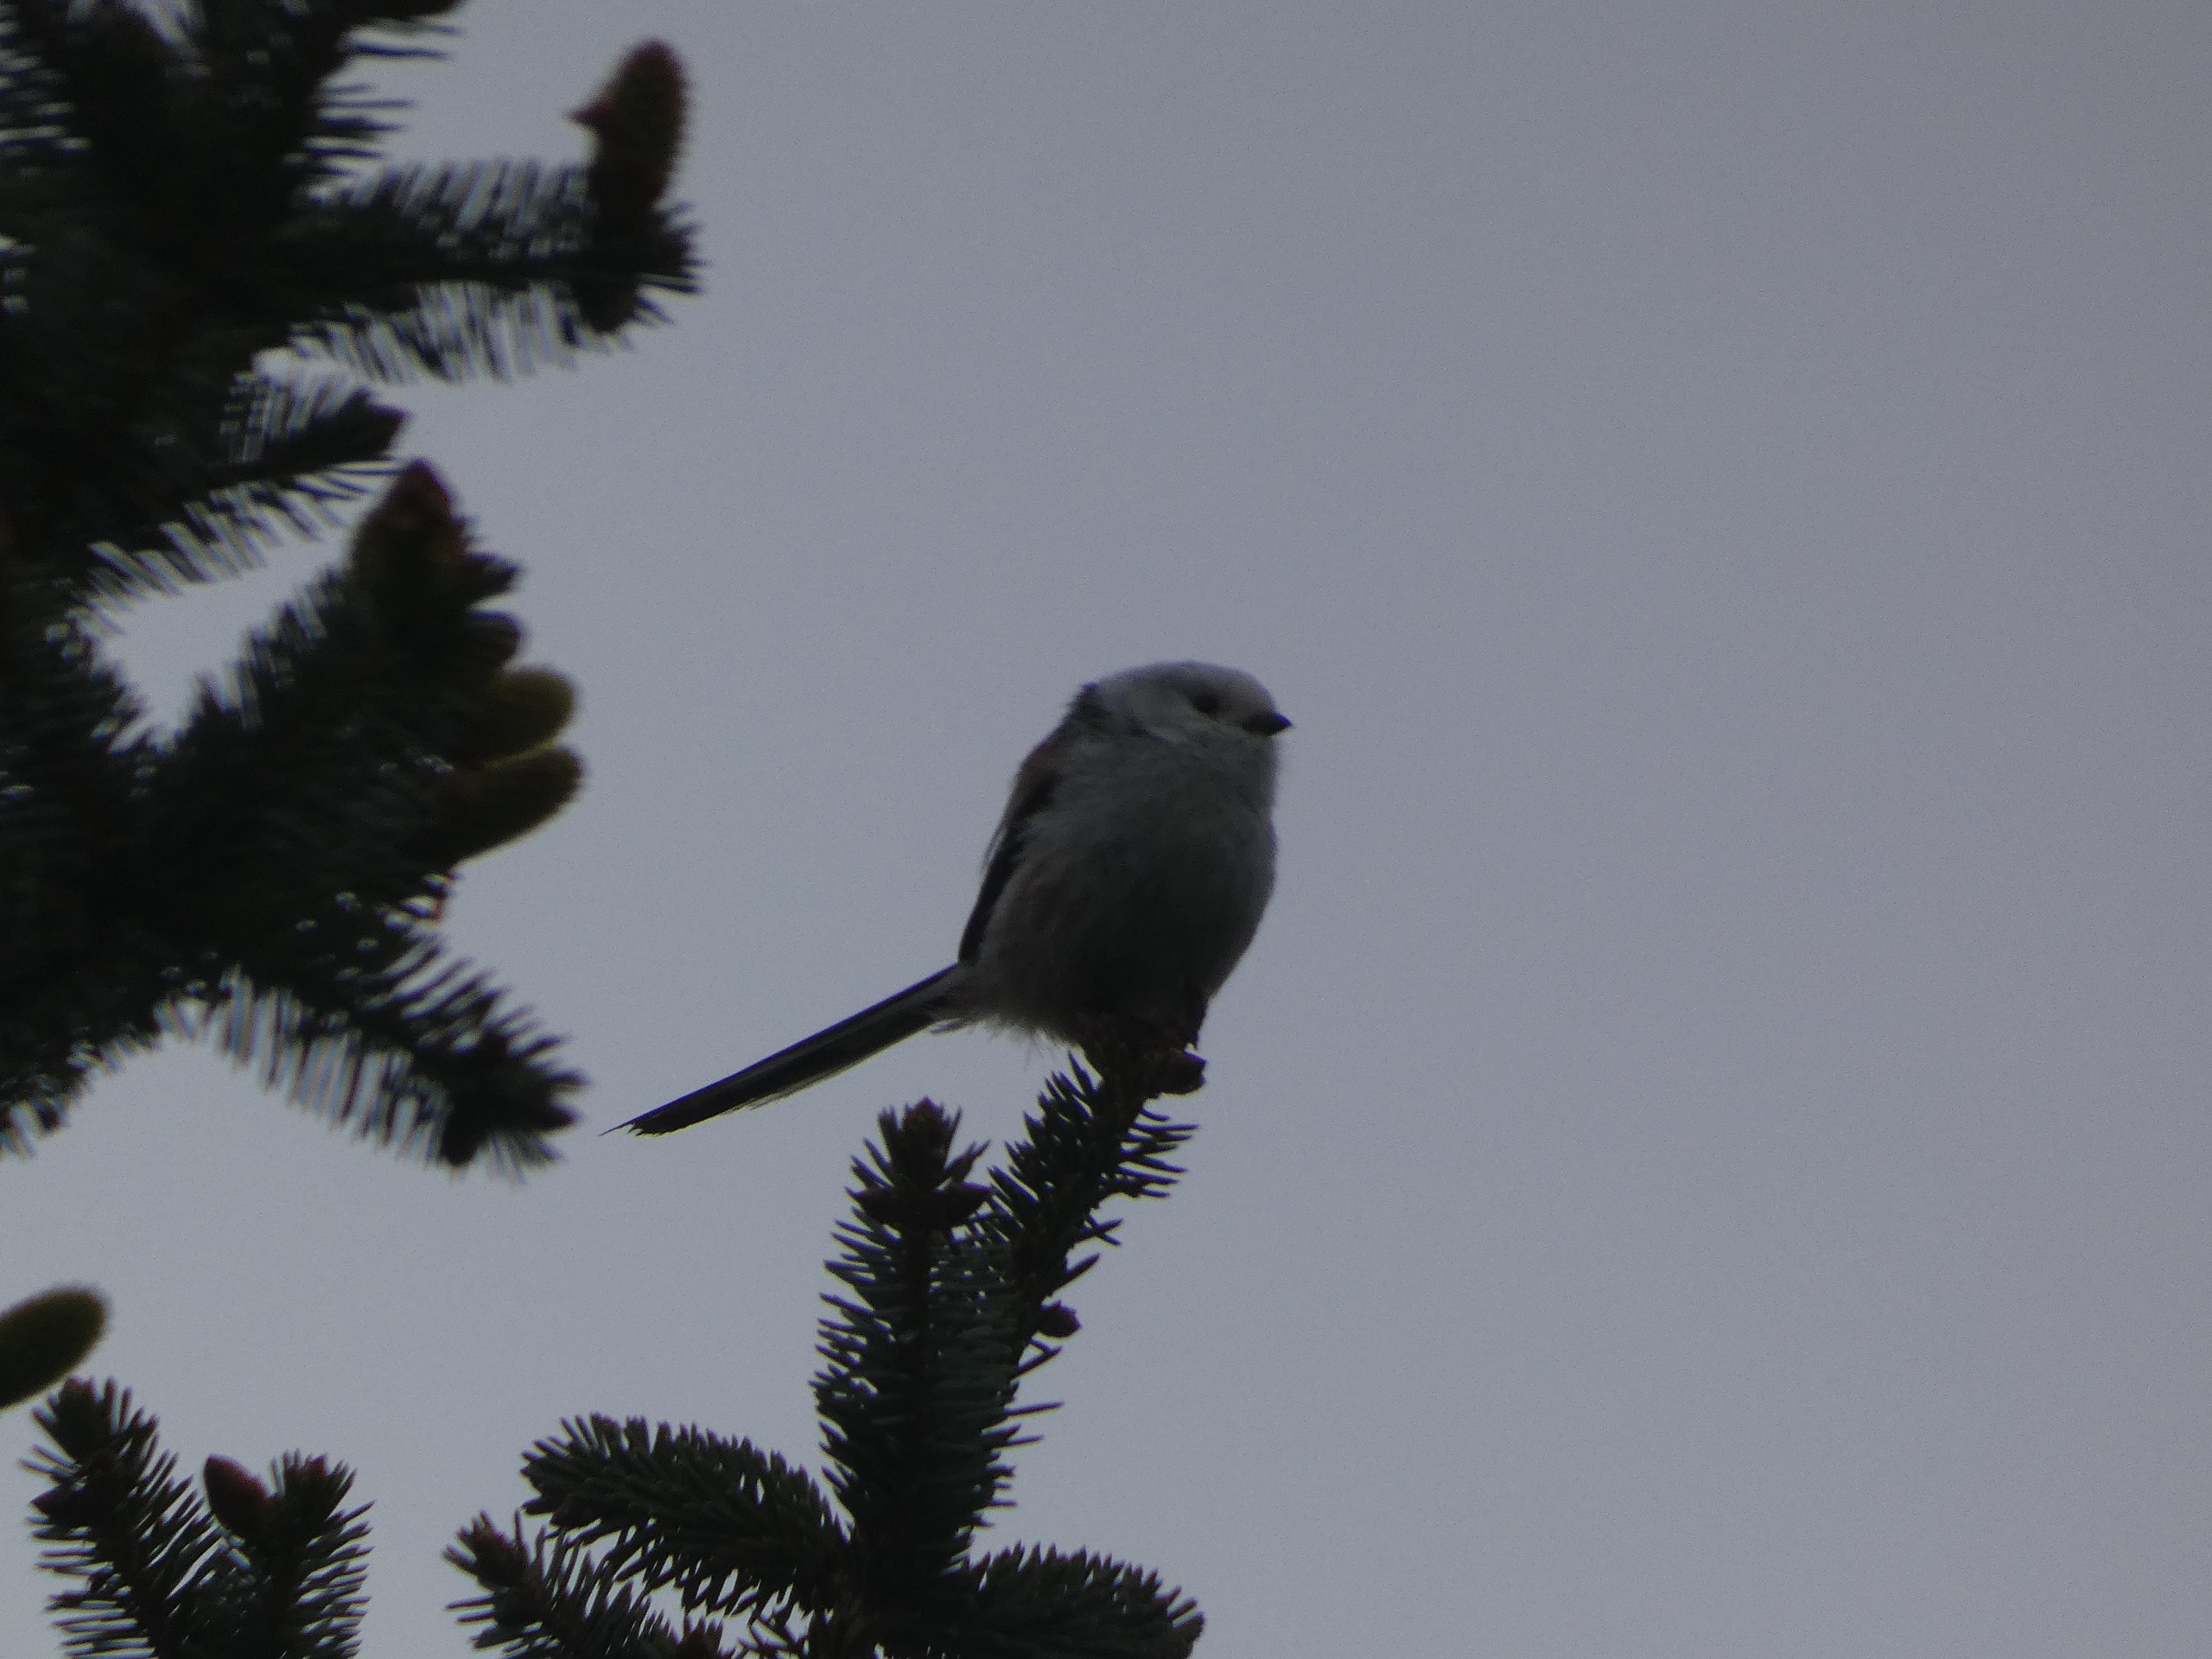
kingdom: Animalia
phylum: Chordata
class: Aves
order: Passeriformes
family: Aegithalidae
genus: Aegithalos
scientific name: Aegithalos caudatus
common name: Nordlig halemejse
